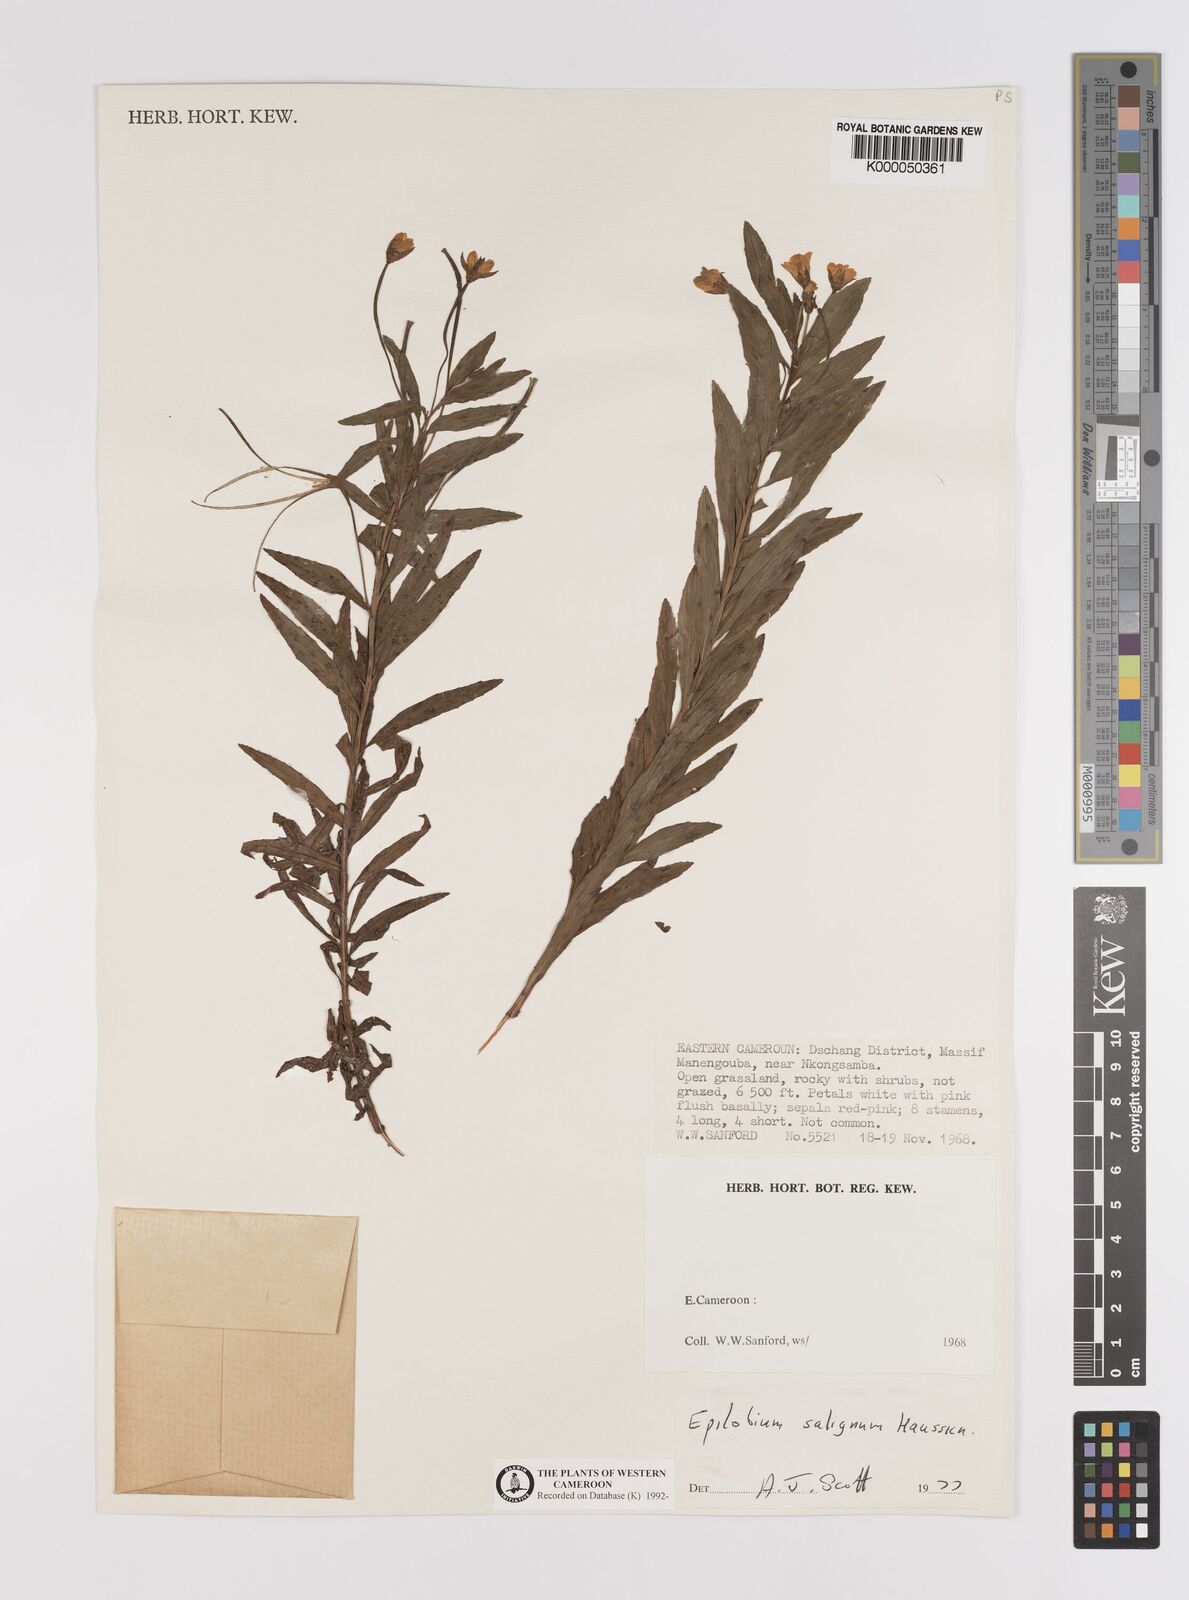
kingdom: Plantae
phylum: Tracheophyta
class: Magnoliopsida
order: Myrtales
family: Onagraceae
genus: Epilobium
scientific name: Epilobium salignum
